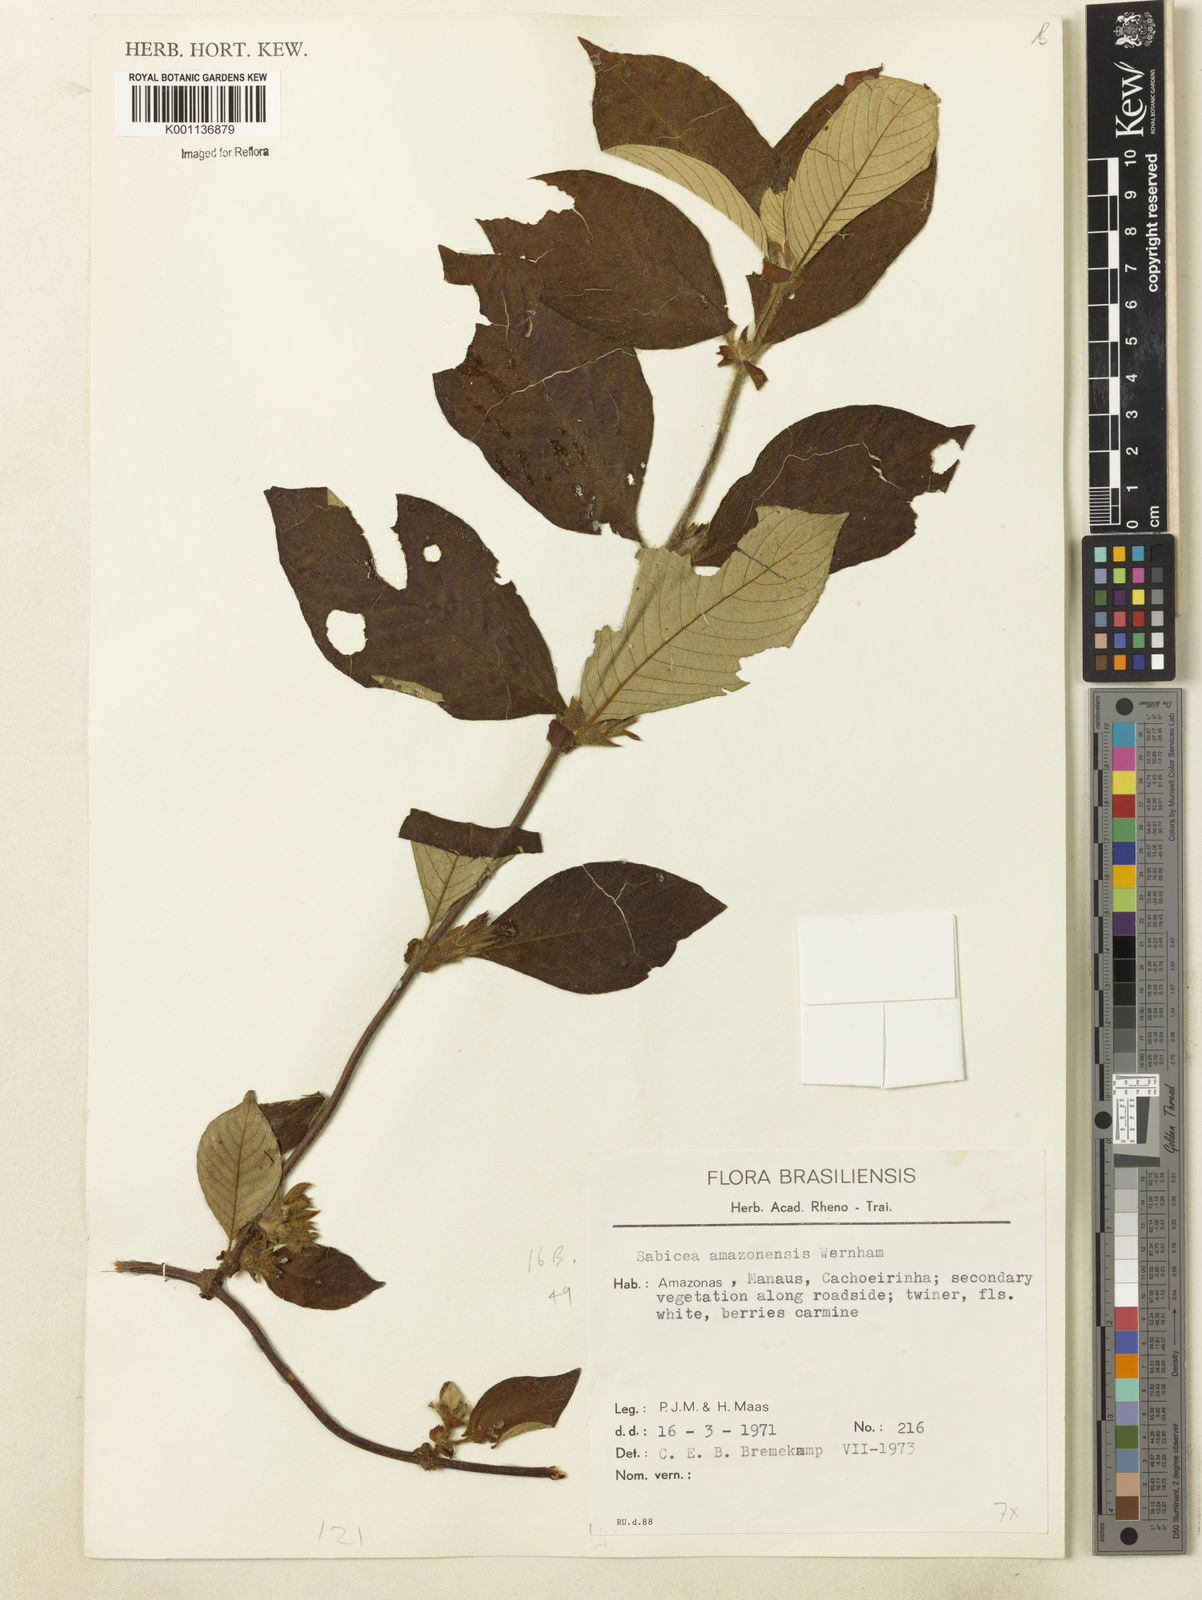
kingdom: Plantae
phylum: Tracheophyta
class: Magnoliopsida
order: Gentianales
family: Rubiaceae
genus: Sabicea
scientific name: Sabicea amazonensis
